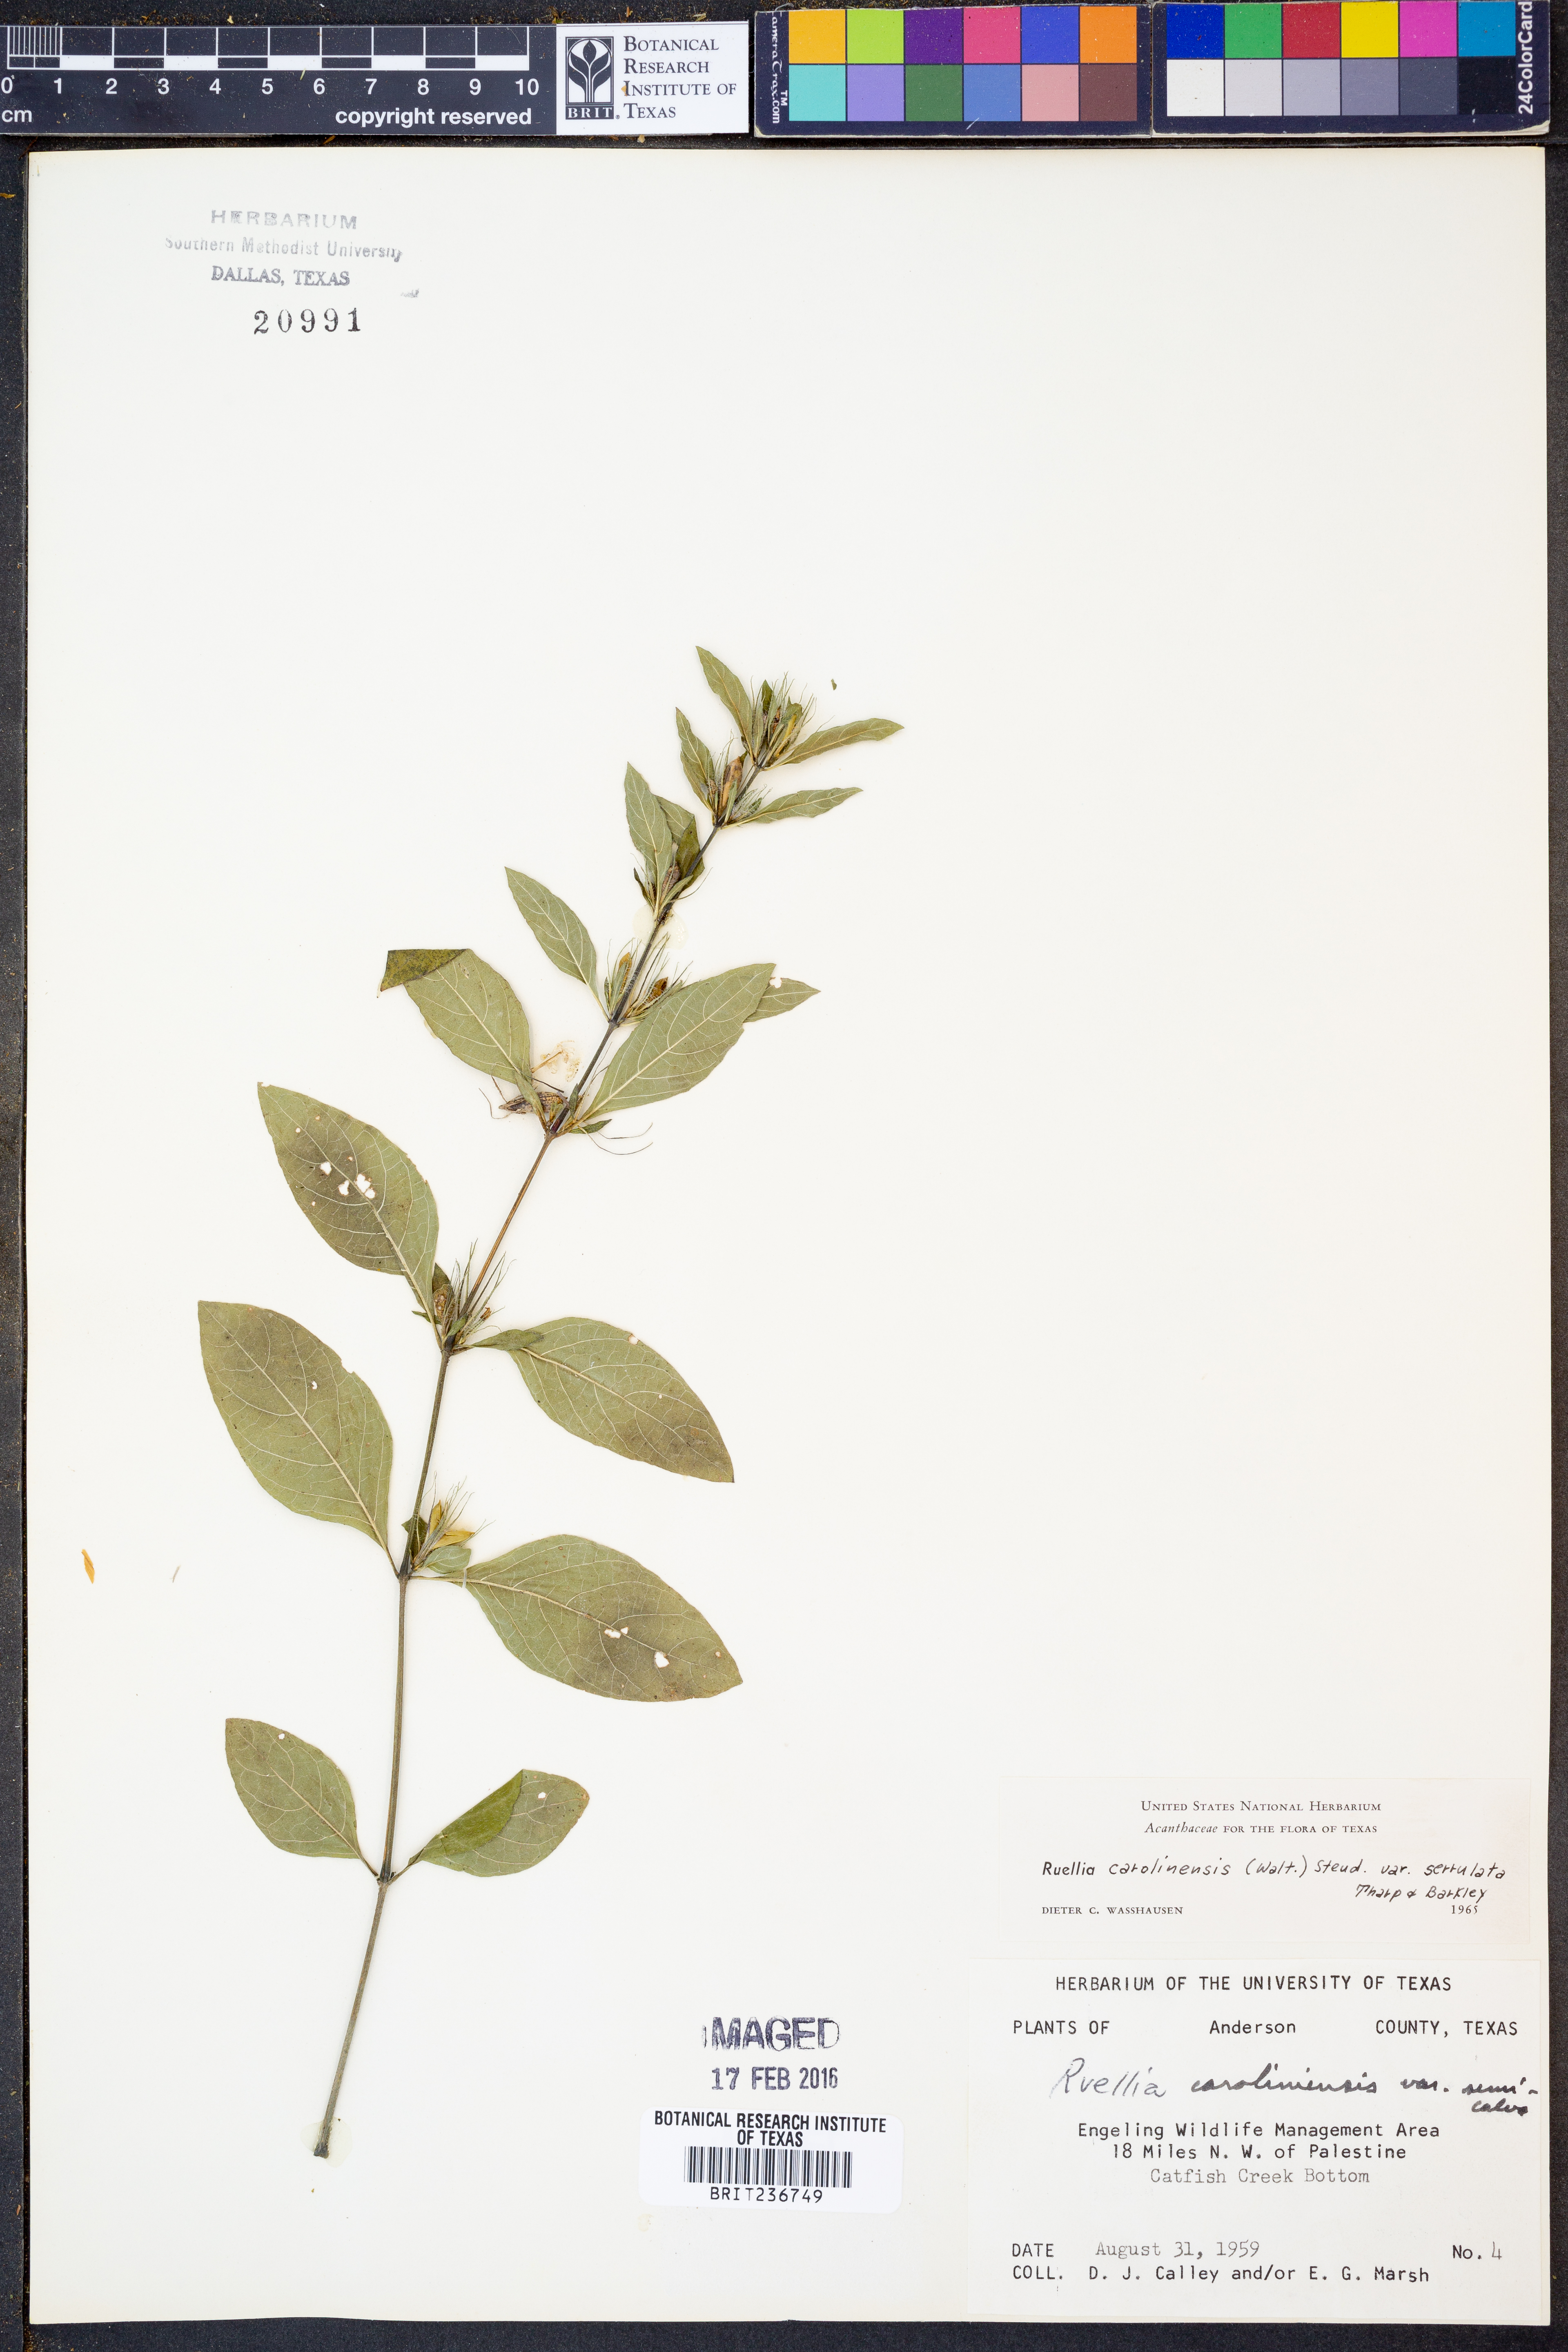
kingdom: Plantae
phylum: Tracheophyta
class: Magnoliopsida
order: Lamiales
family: Acanthaceae
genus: Ruellia
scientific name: Ruellia caroliniensis
